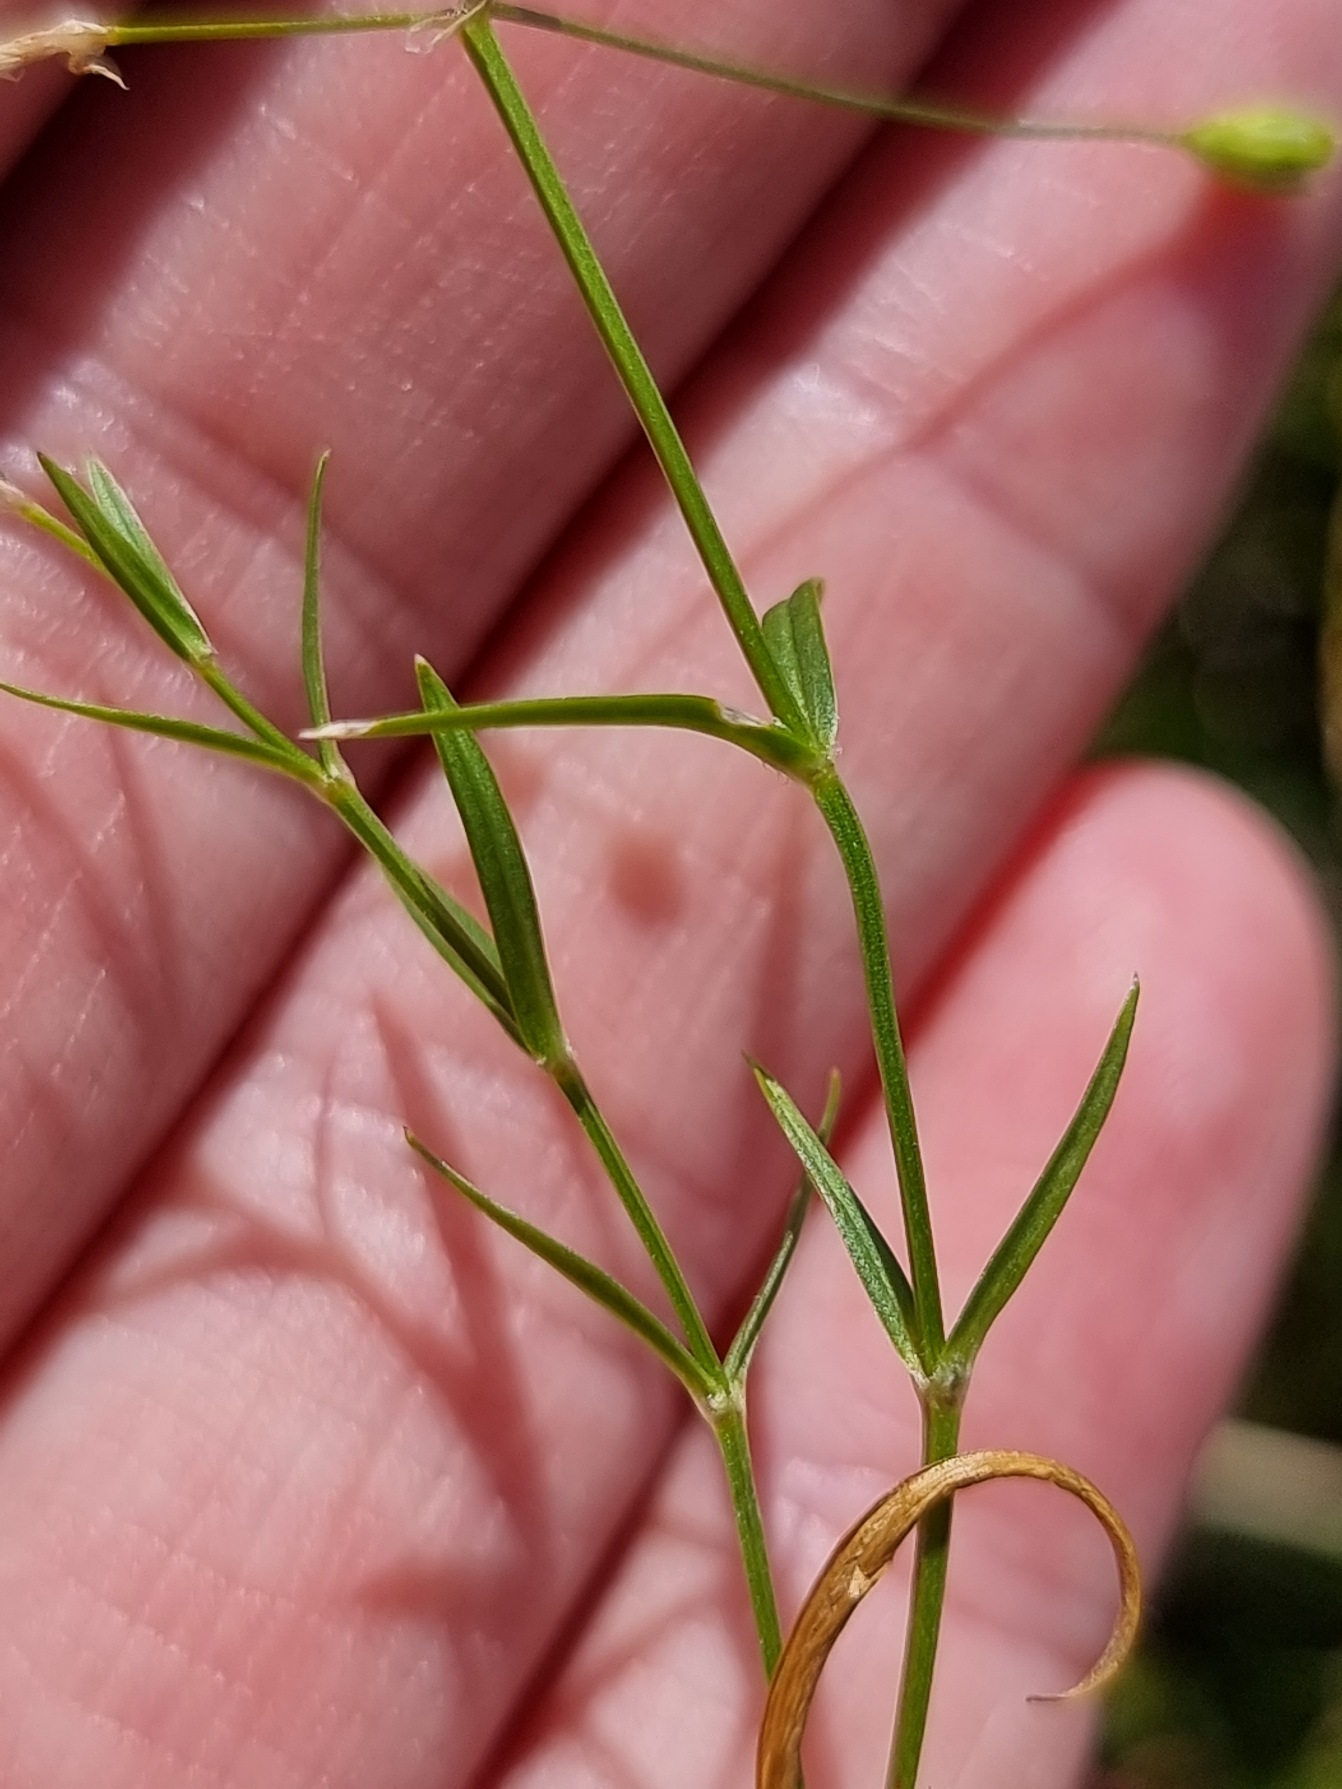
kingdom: Plantae
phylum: Tracheophyta
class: Magnoliopsida
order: Caryophyllales
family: Caryophyllaceae
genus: Stellaria
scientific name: Stellaria graminea
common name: Græsbladet fladstjerne
